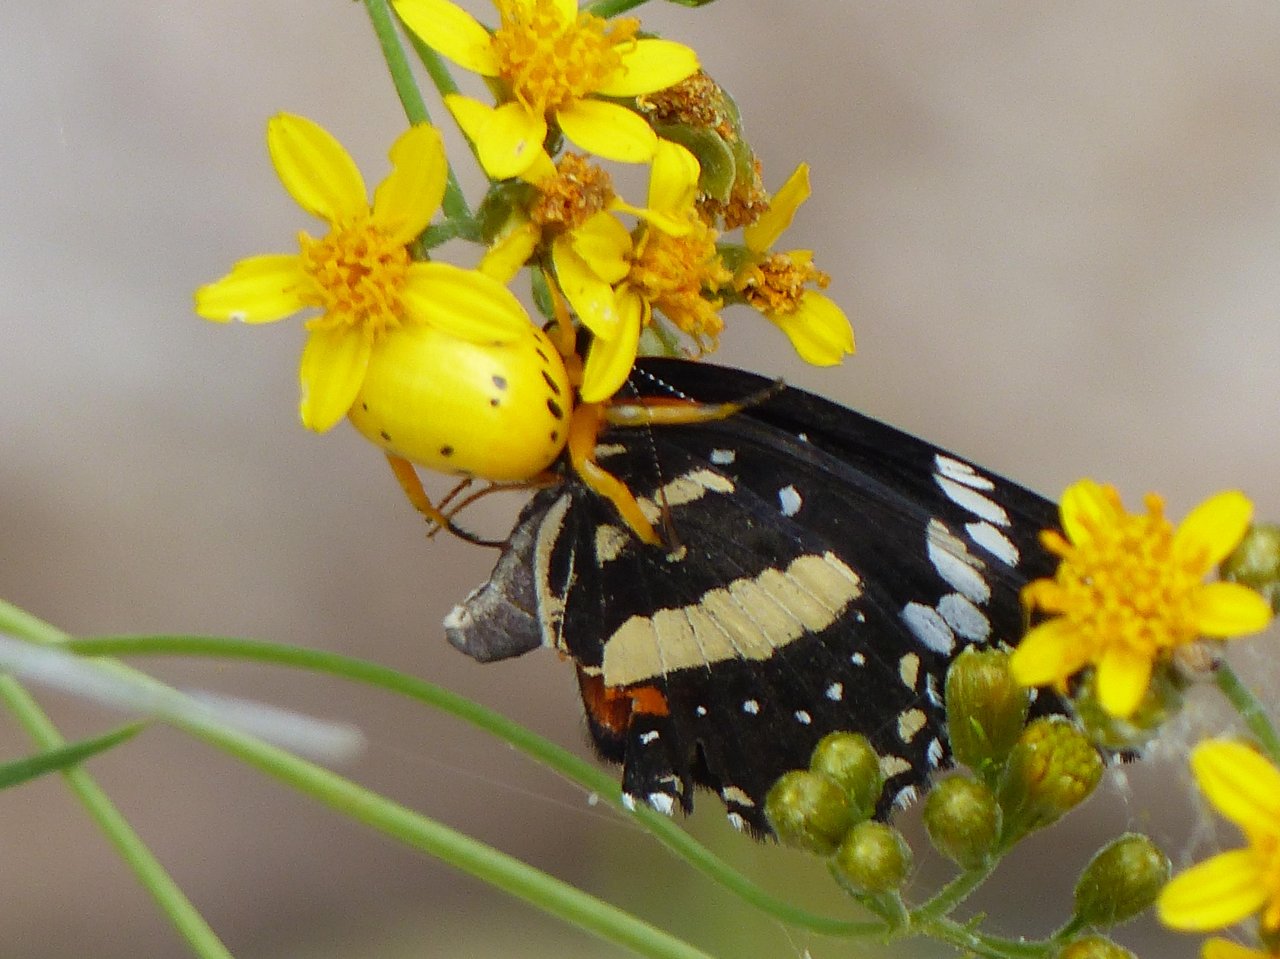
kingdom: Animalia
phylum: Arthropoda
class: Insecta
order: Lepidoptera
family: Nymphalidae
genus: Chlosyne
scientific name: Chlosyne lacinia
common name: Bordered Patch
